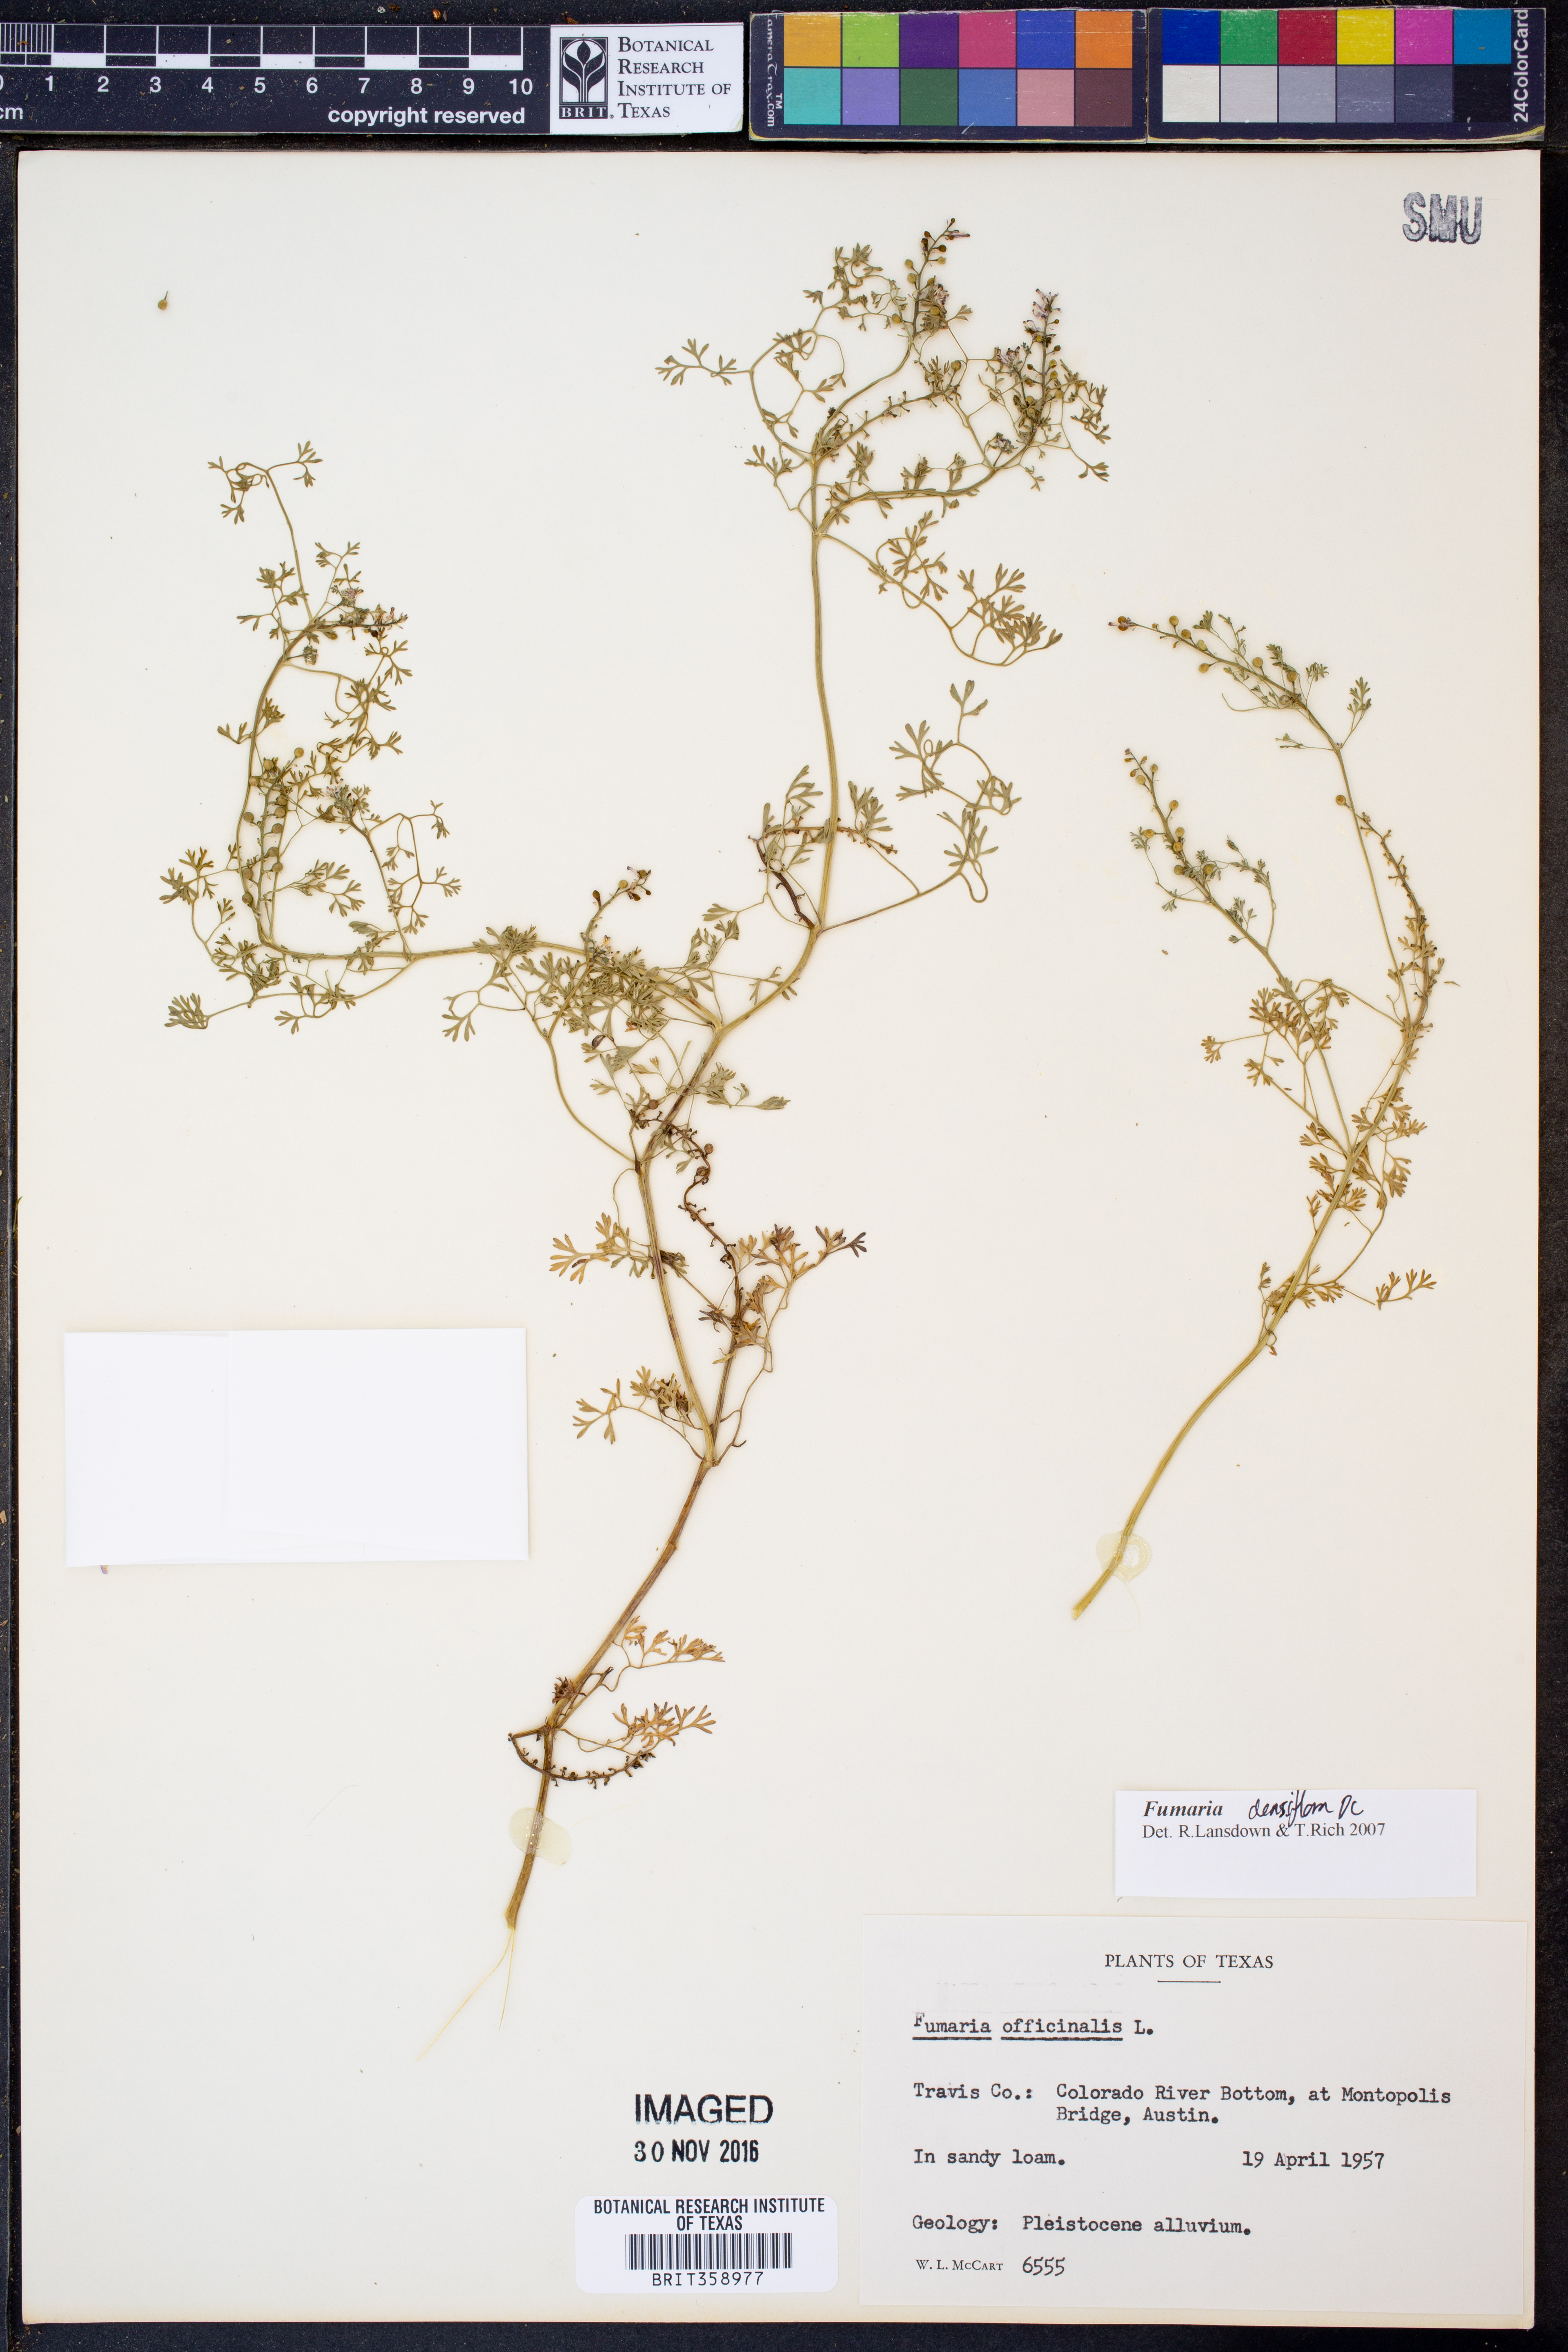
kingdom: Plantae
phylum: Tracheophyta
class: Magnoliopsida
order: Ranunculales
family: Papaveraceae
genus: Fumaria
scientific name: Fumaria densiflora
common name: Dense-flowered fumitory
